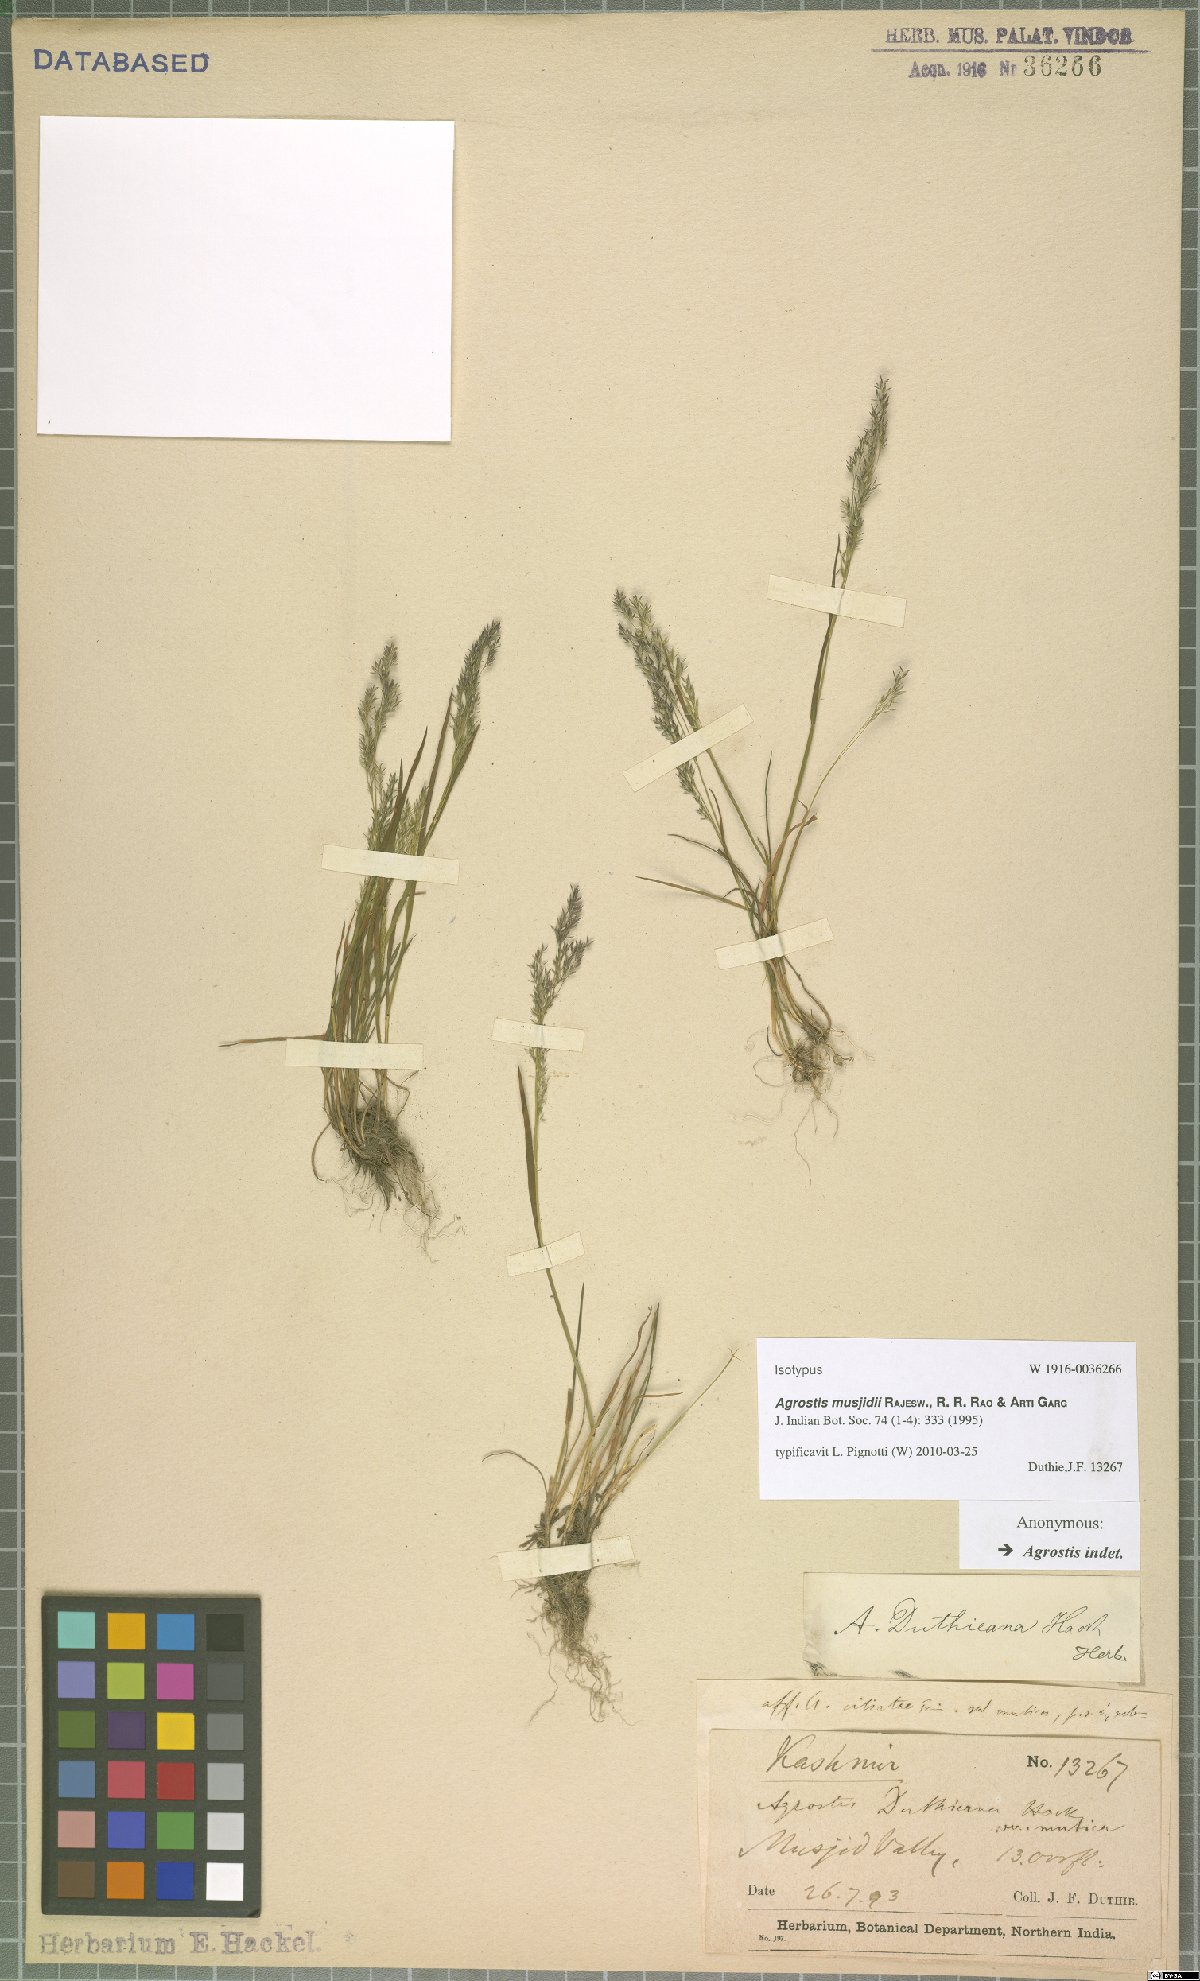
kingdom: Plantae
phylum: Tracheophyta
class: Liliopsida
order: Poales
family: Poaceae
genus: Agrostis
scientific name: Agrostis musjidii
